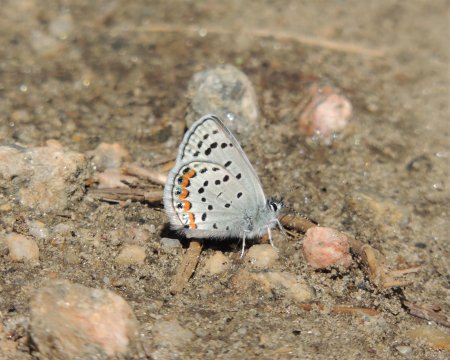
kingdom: Animalia
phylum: Arthropoda
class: Insecta
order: Lepidoptera
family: Lycaenidae
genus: Plebejus
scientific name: Plebejus lupini
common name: Lupine Blue
